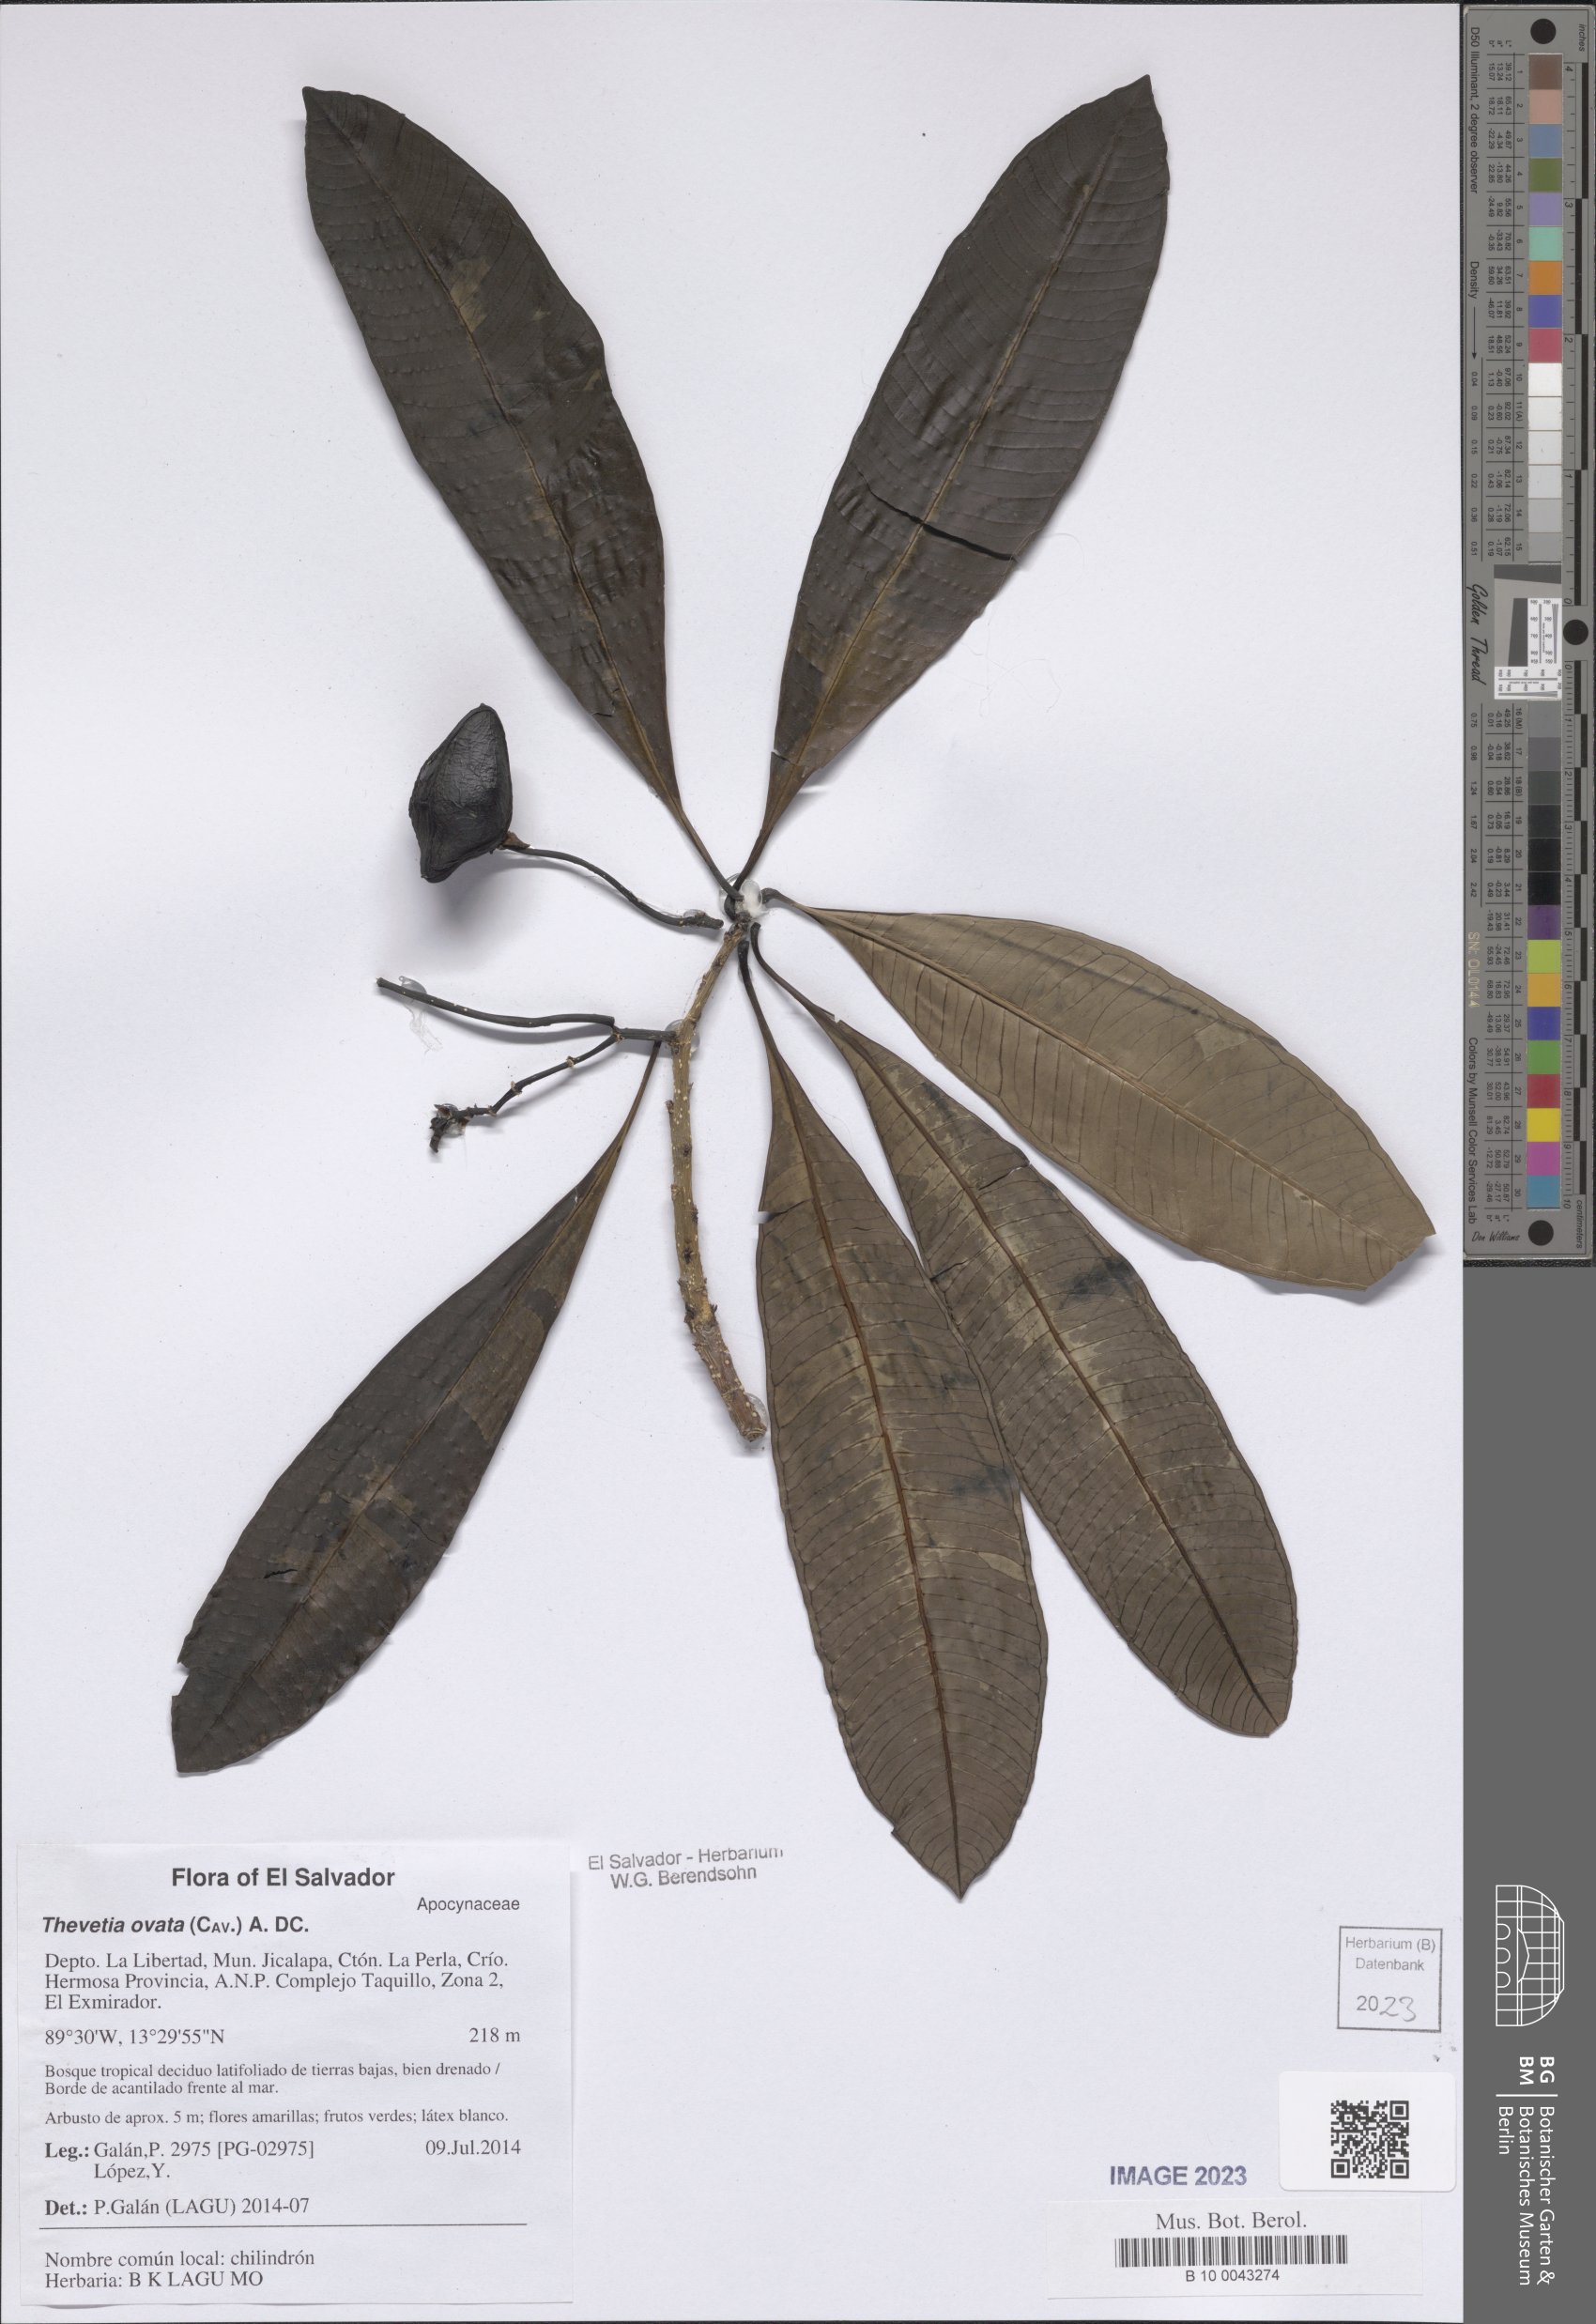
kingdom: Plantae
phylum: Tracheophyta
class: Magnoliopsida
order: Gentianales
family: Apocynaceae
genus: Cascabela
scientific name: Cascabela ovata
